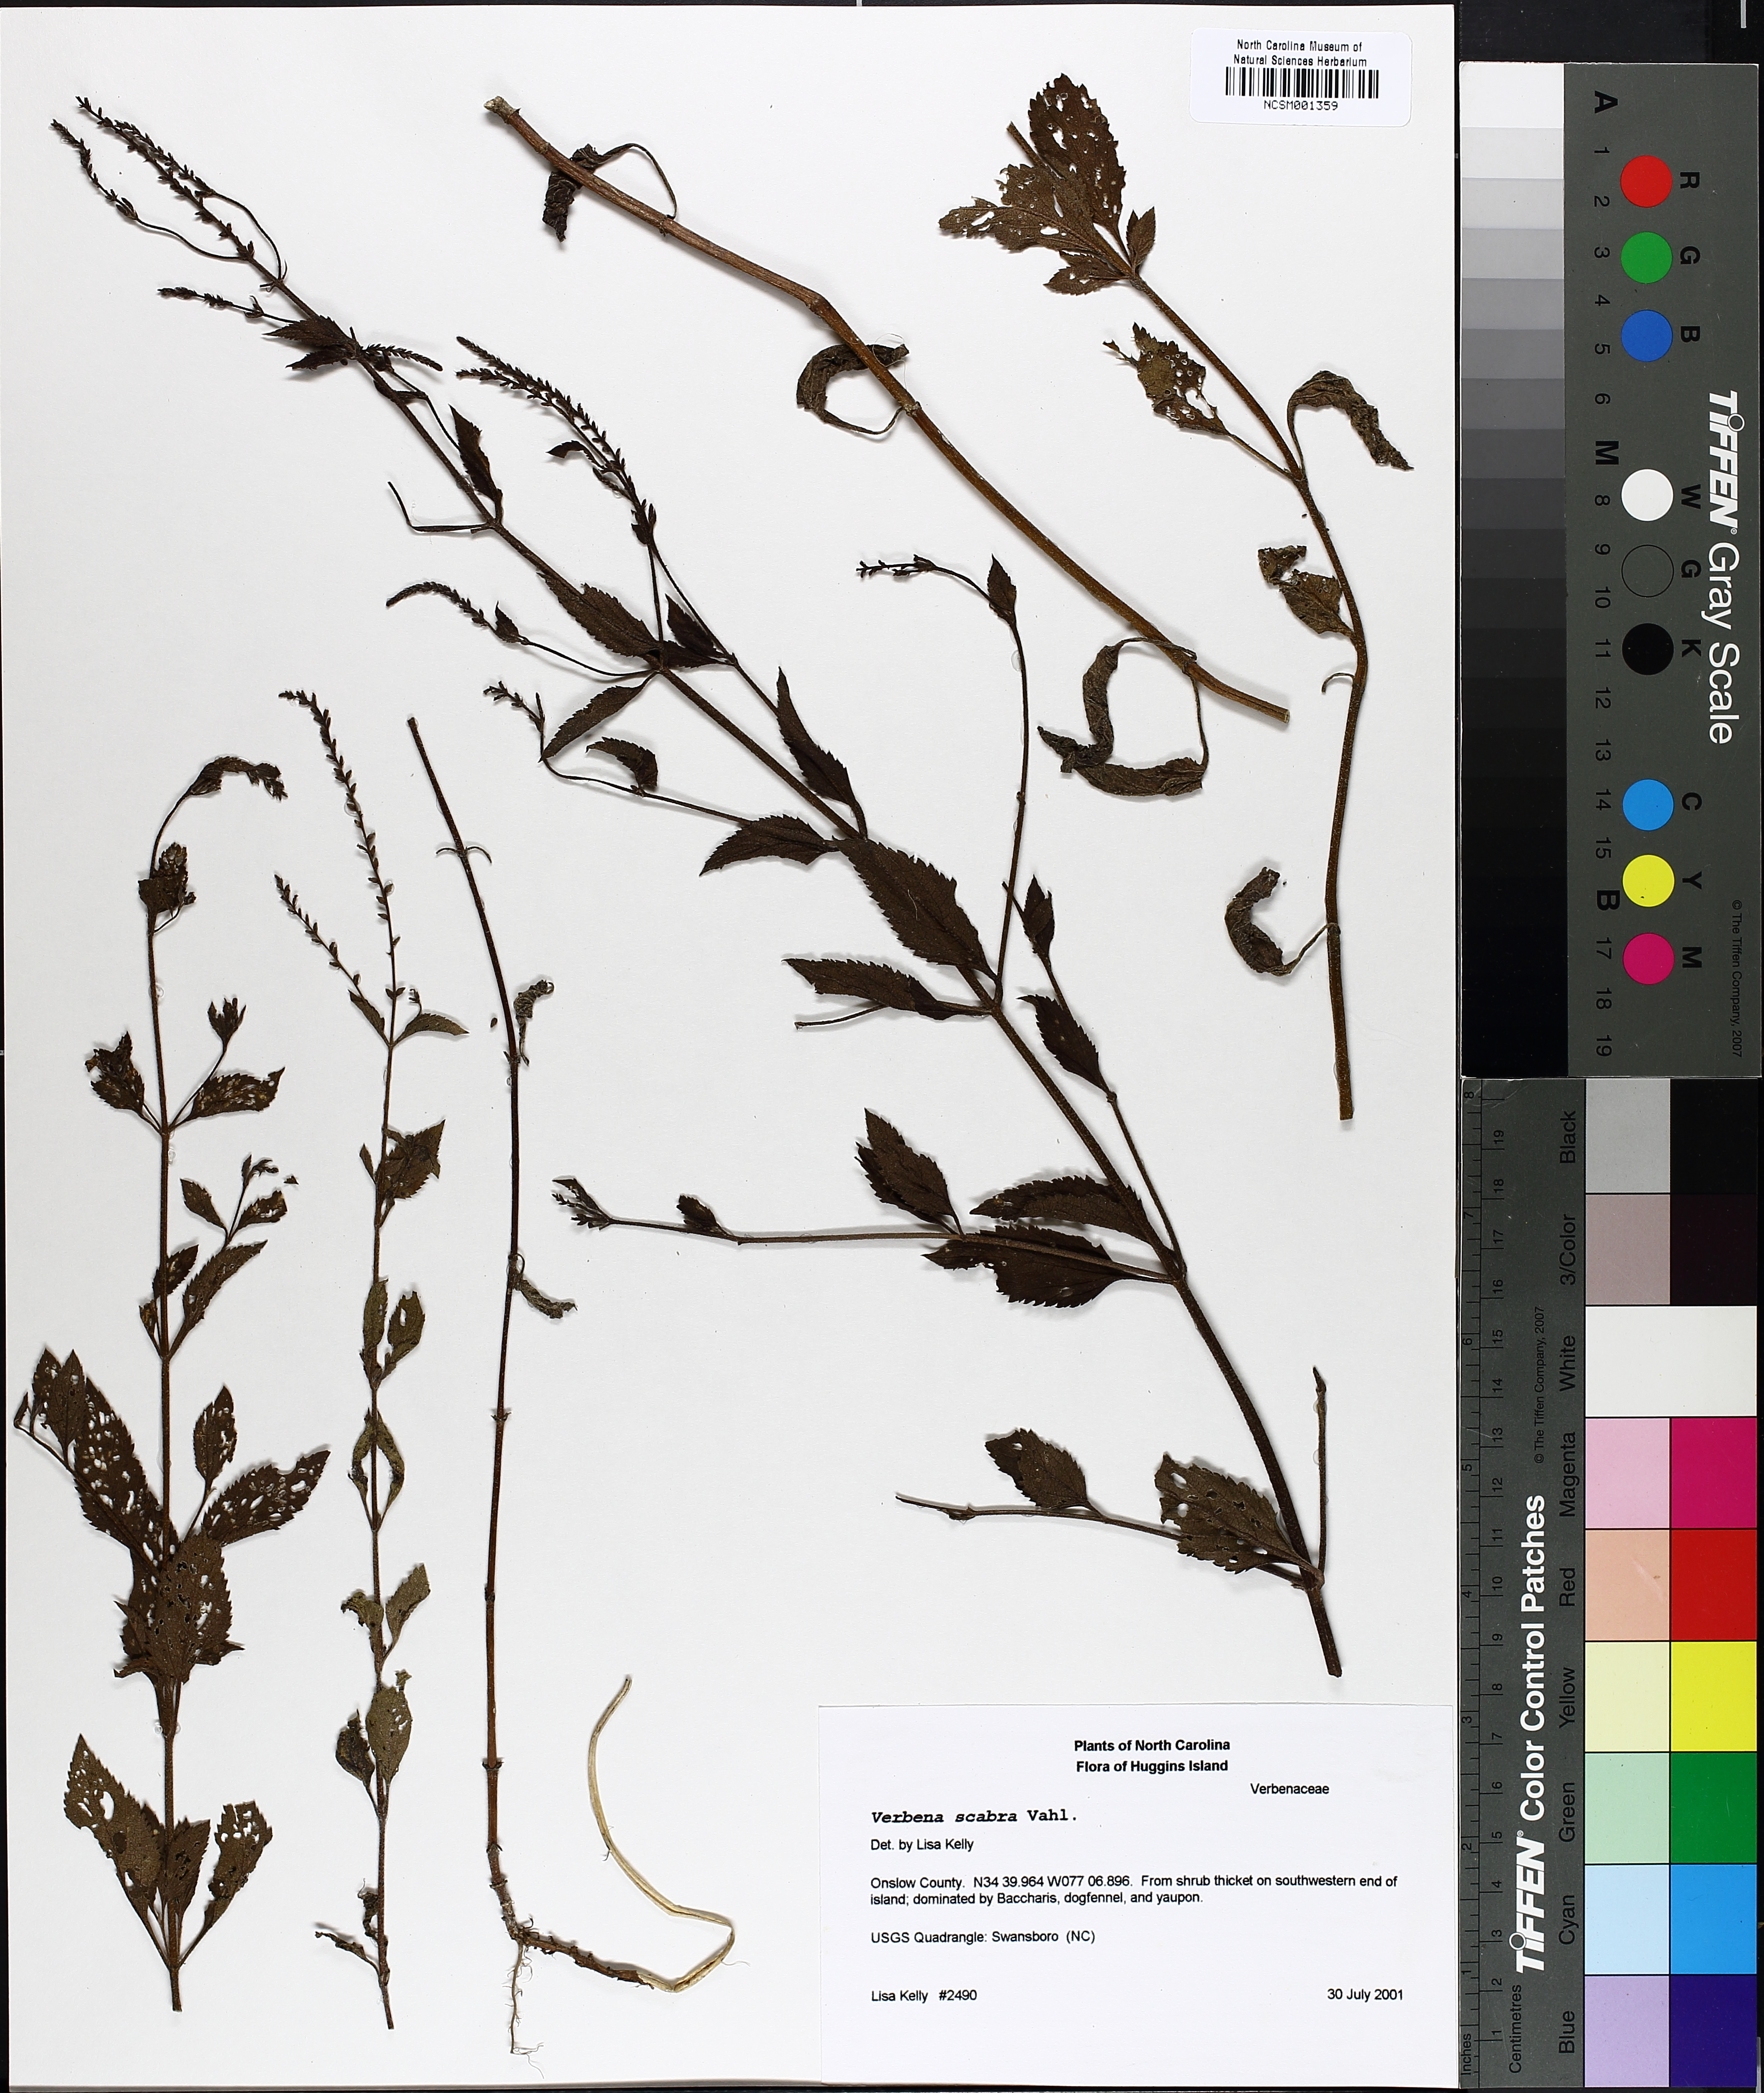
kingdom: Plantae
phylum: Tracheophyta
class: Magnoliopsida
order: Lamiales
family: Verbenaceae
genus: Verbena
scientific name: Verbena scabra
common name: Sandpaper vervain
